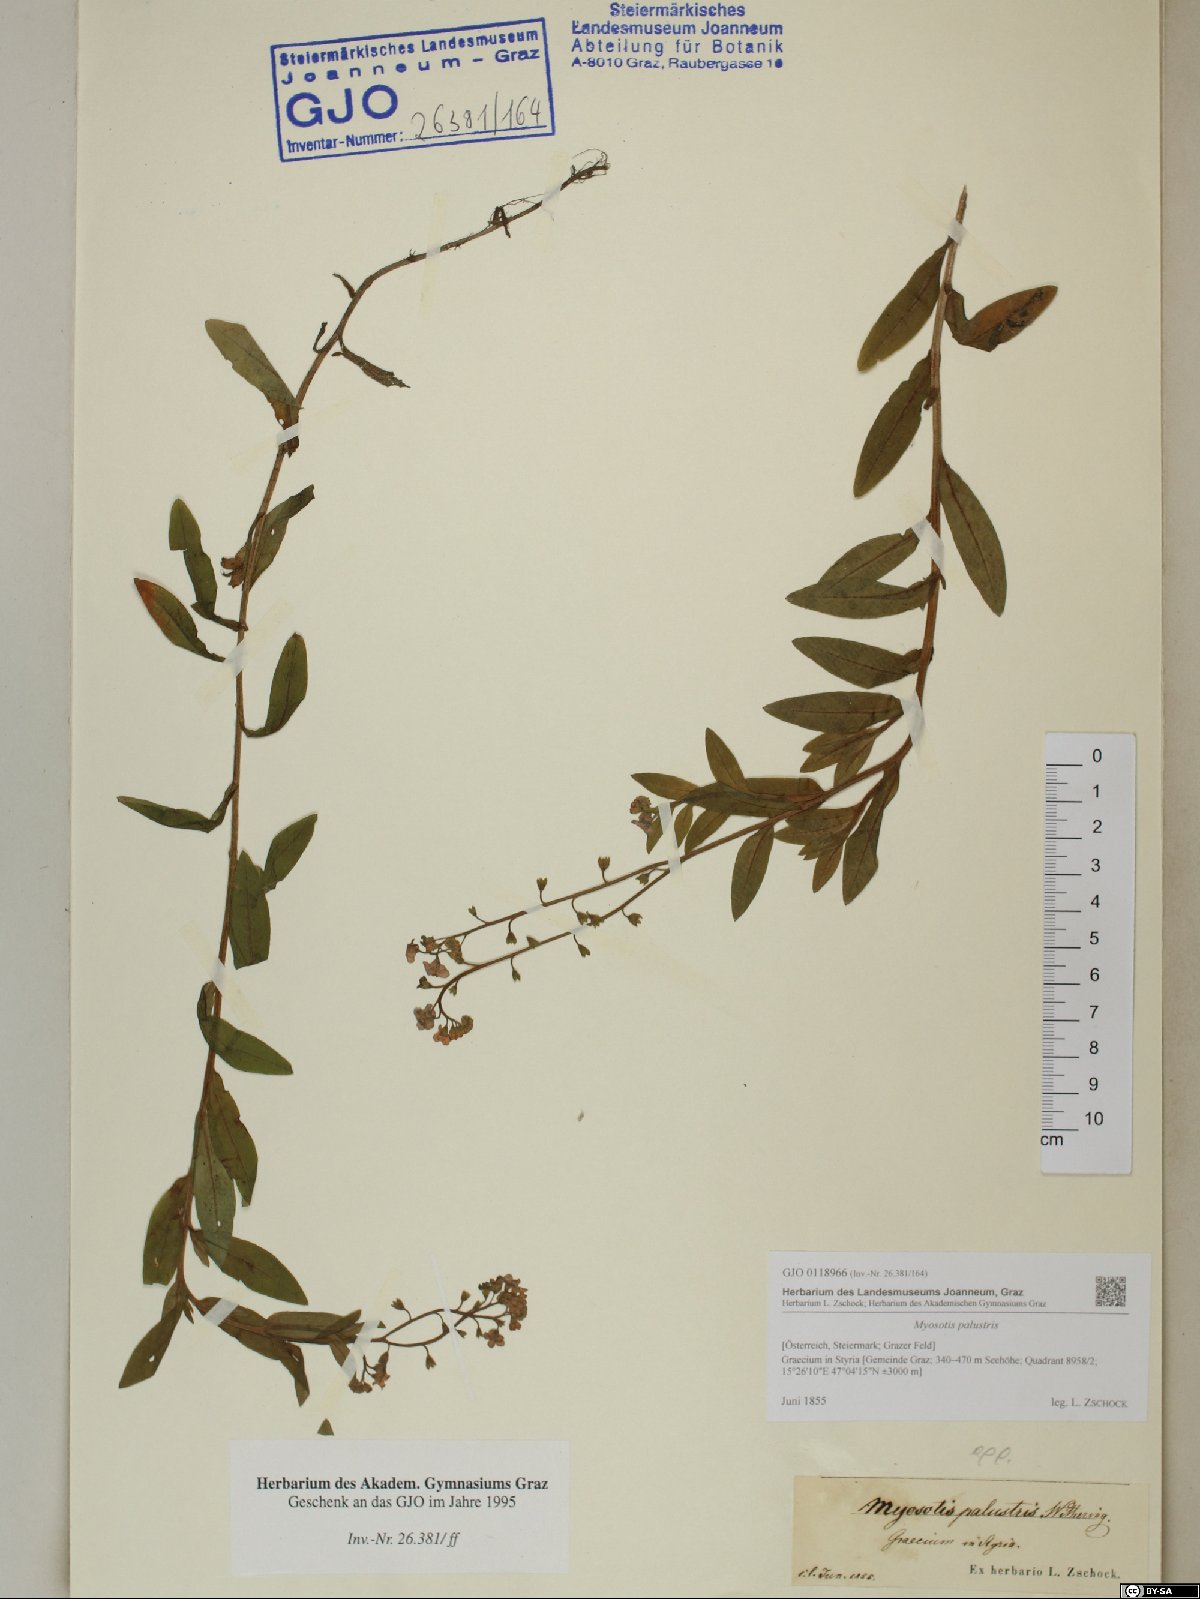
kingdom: Plantae
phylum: Tracheophyta
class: Magnoliopsida
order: Boraginales
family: Boraginaceae
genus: Myosotis
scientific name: Myosotis scorpioides
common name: Water forget-me-not
